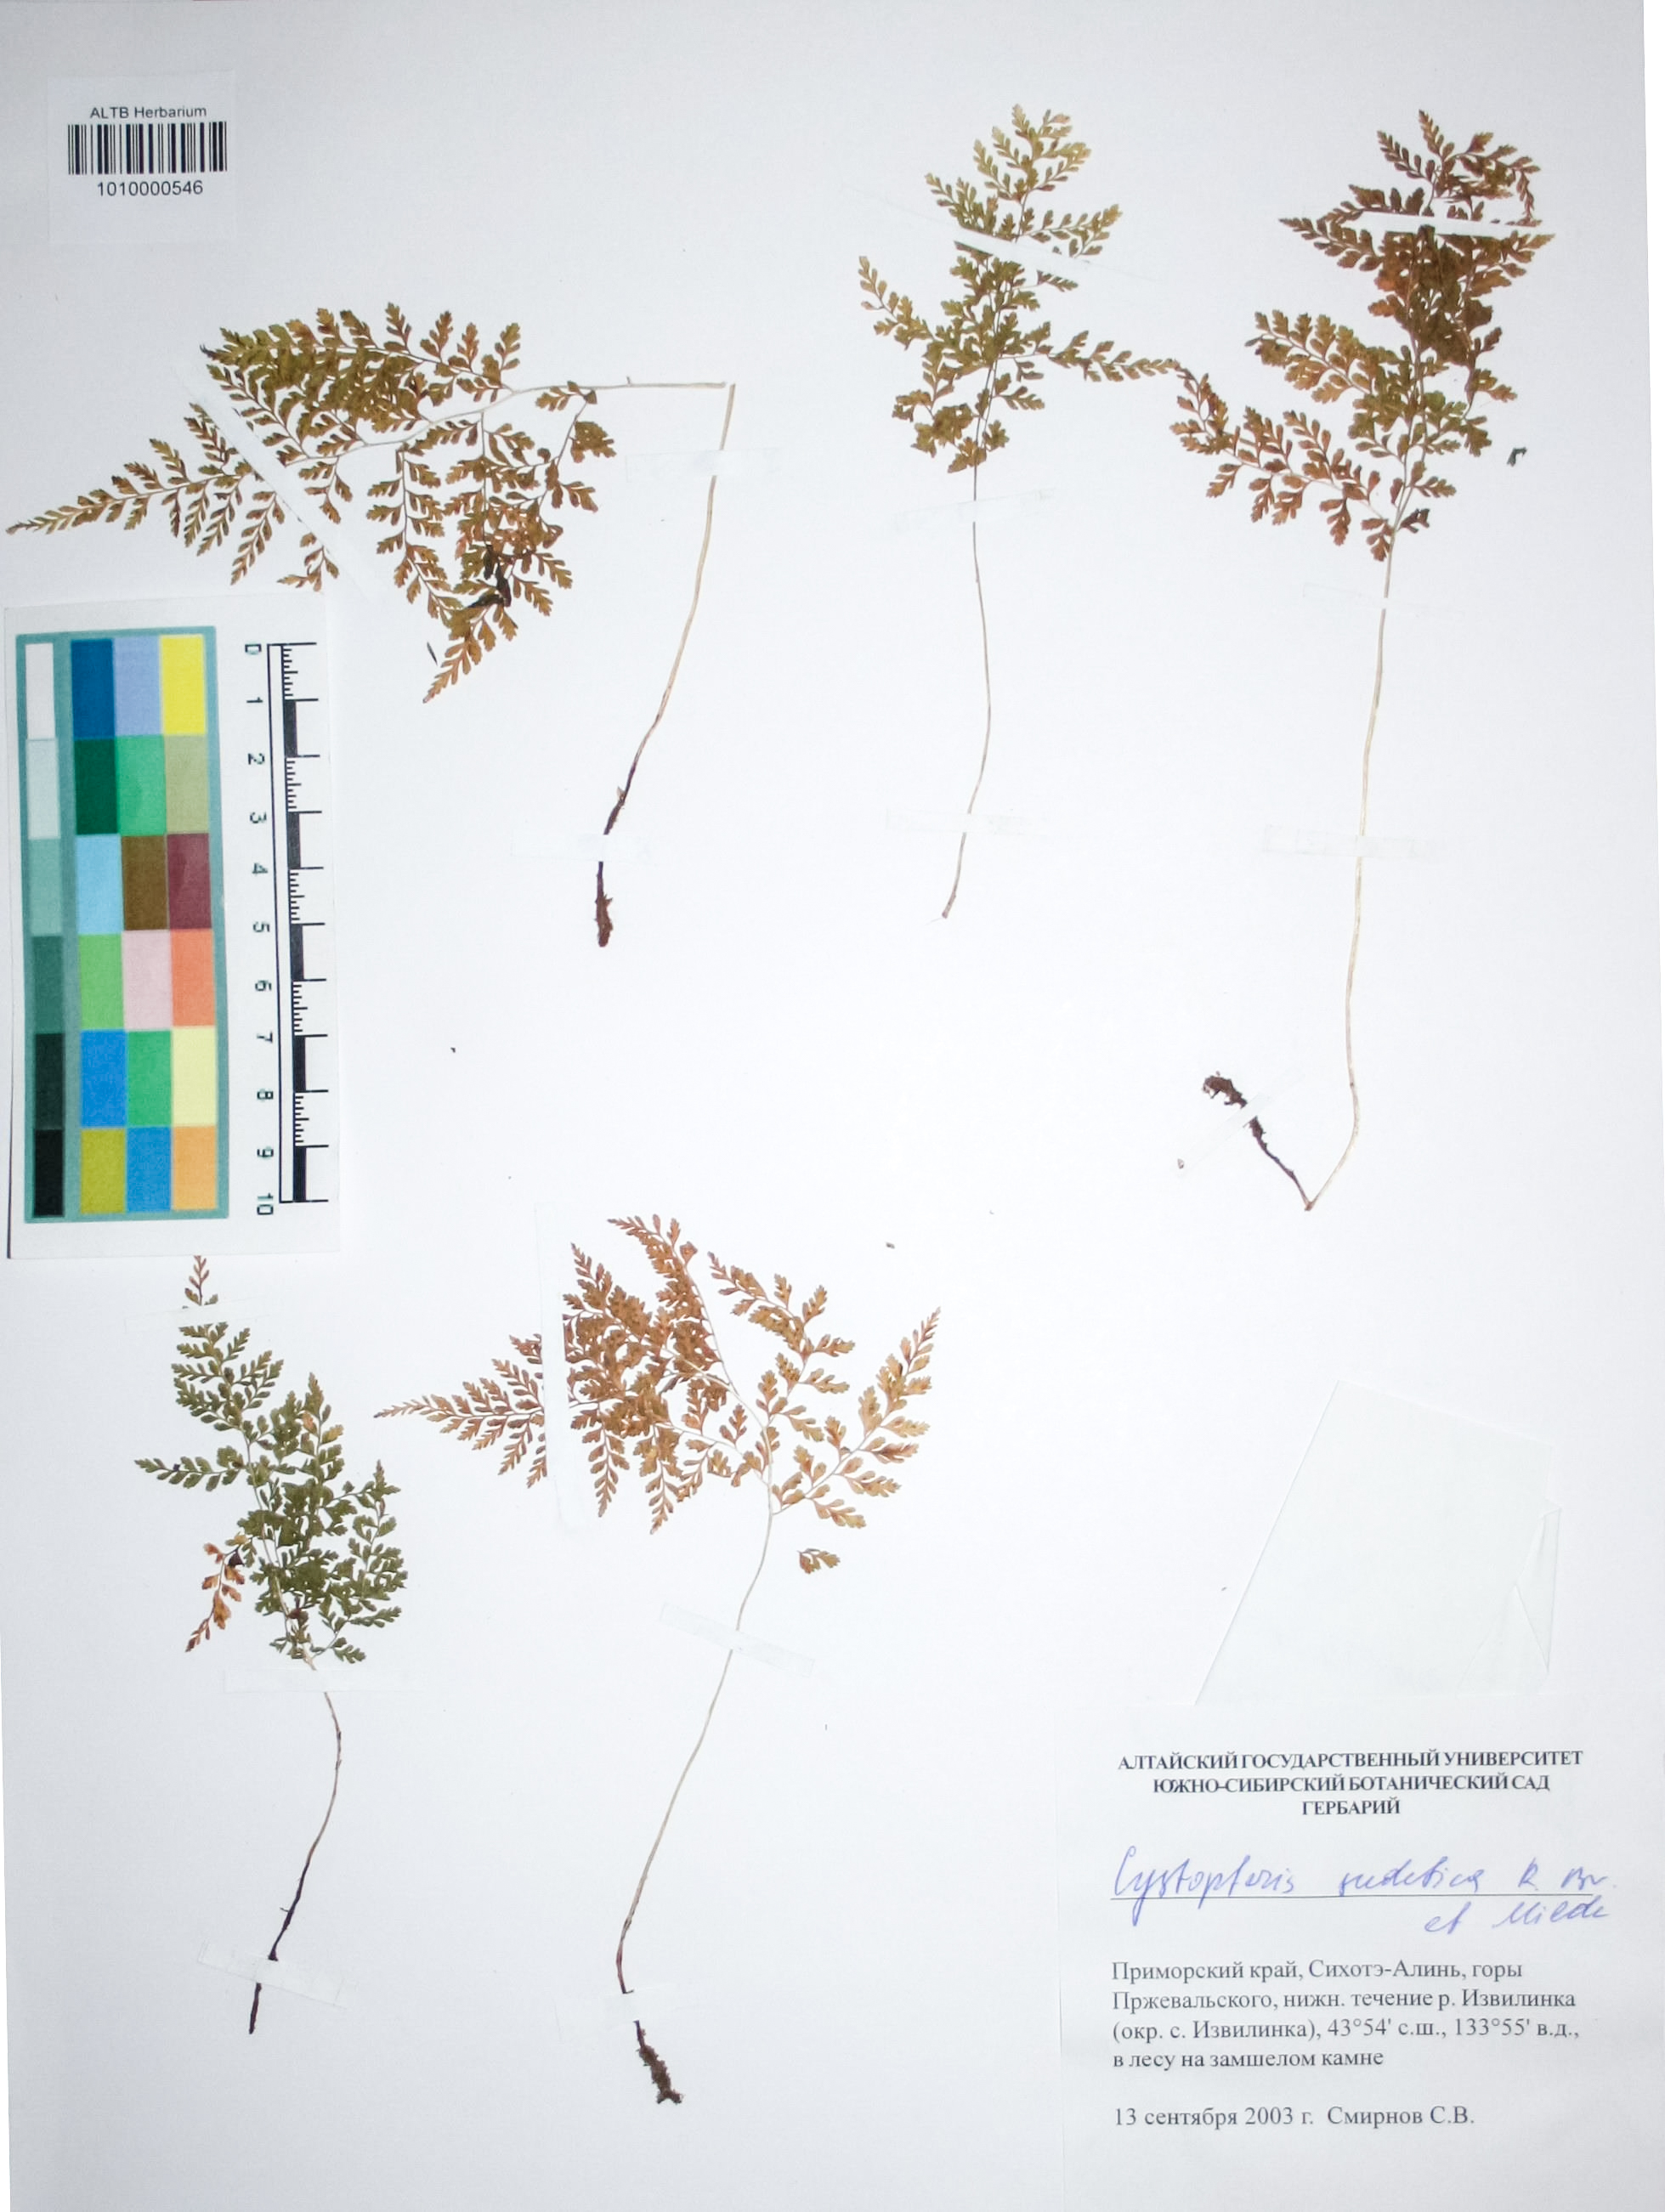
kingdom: Plantae
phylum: Tracheophyta
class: Polypodiopsida
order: Polypodiales
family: Cystopteridaceae
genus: Cystopteris
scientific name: Cystopteris sudetica
